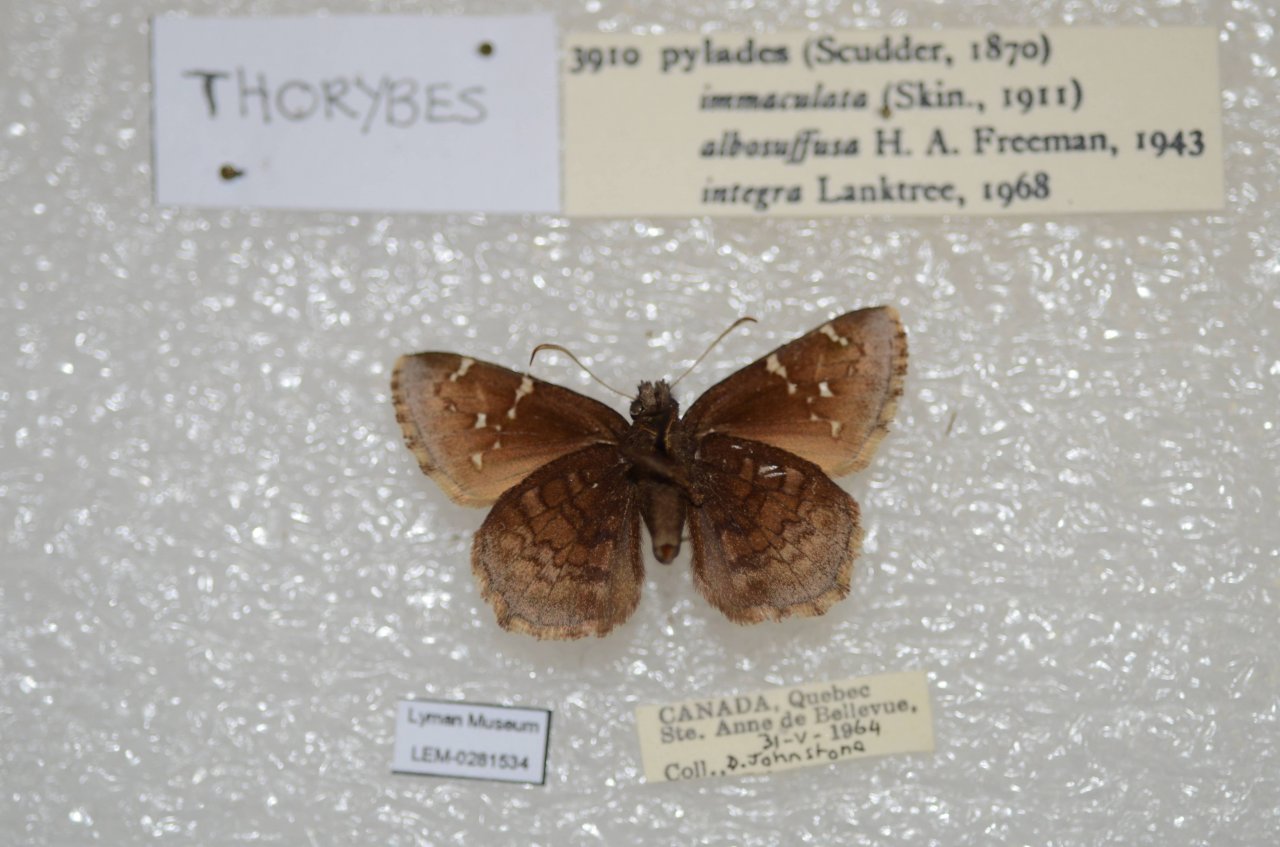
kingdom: Animalia
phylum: Arthropoda
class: Insecta
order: Lepidoptera
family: Hesperiidae
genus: Autochton
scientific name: Autochton
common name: Northern Cloudywing
